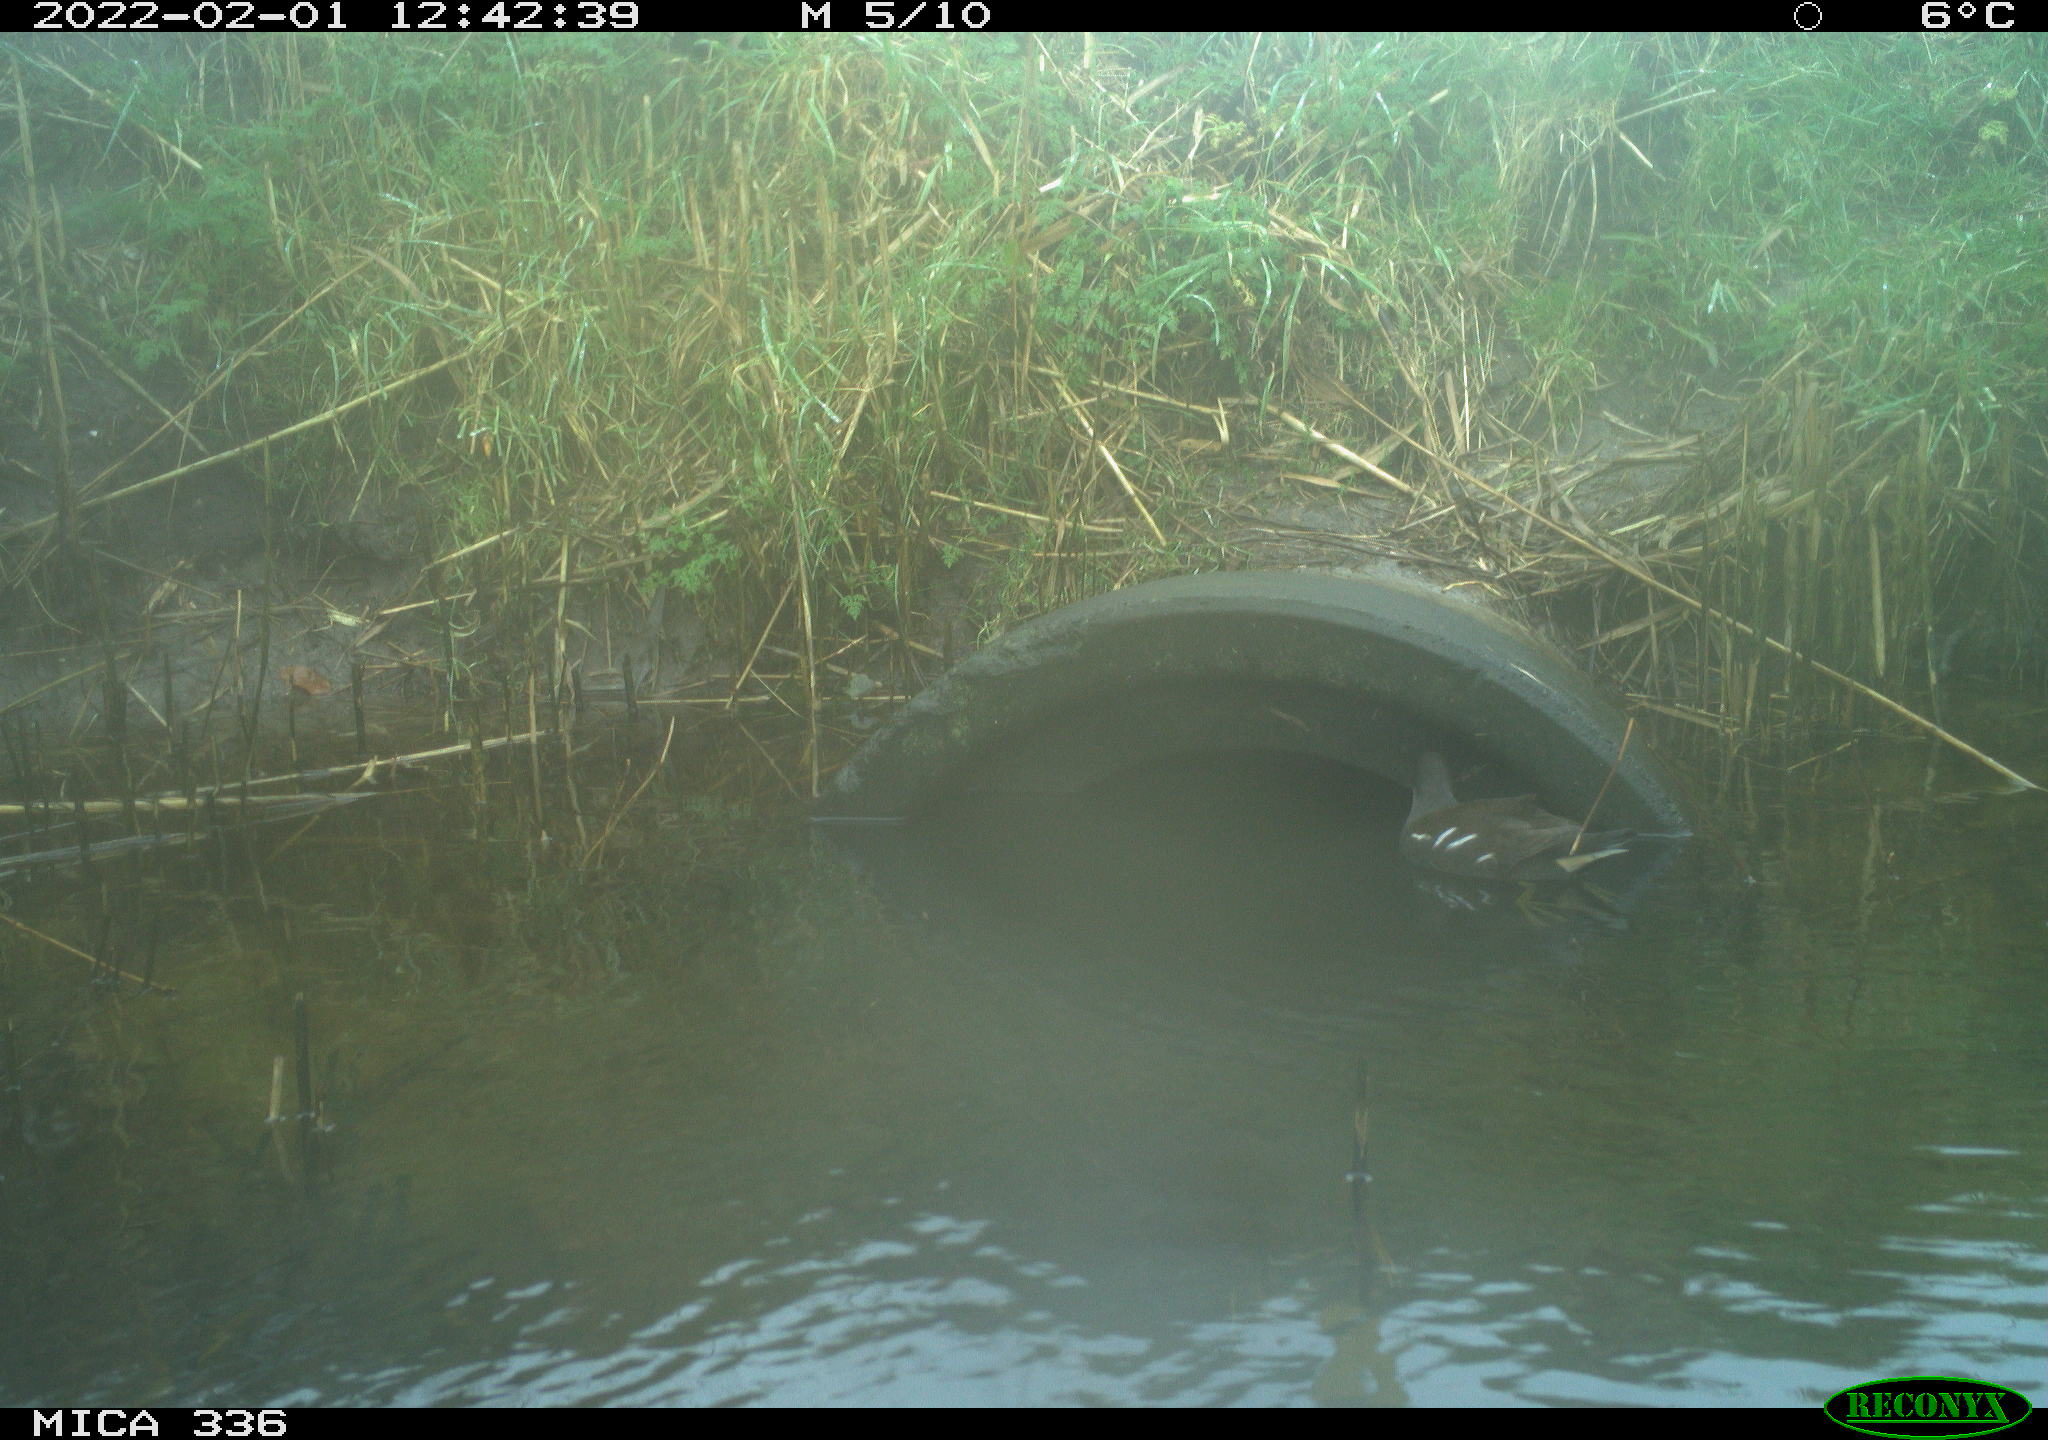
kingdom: Animalia
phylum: Chordata
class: Aves
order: Gruiformes
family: Rallidae
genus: Gallinula
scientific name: Gallinula chloropus
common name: Common moorhen
